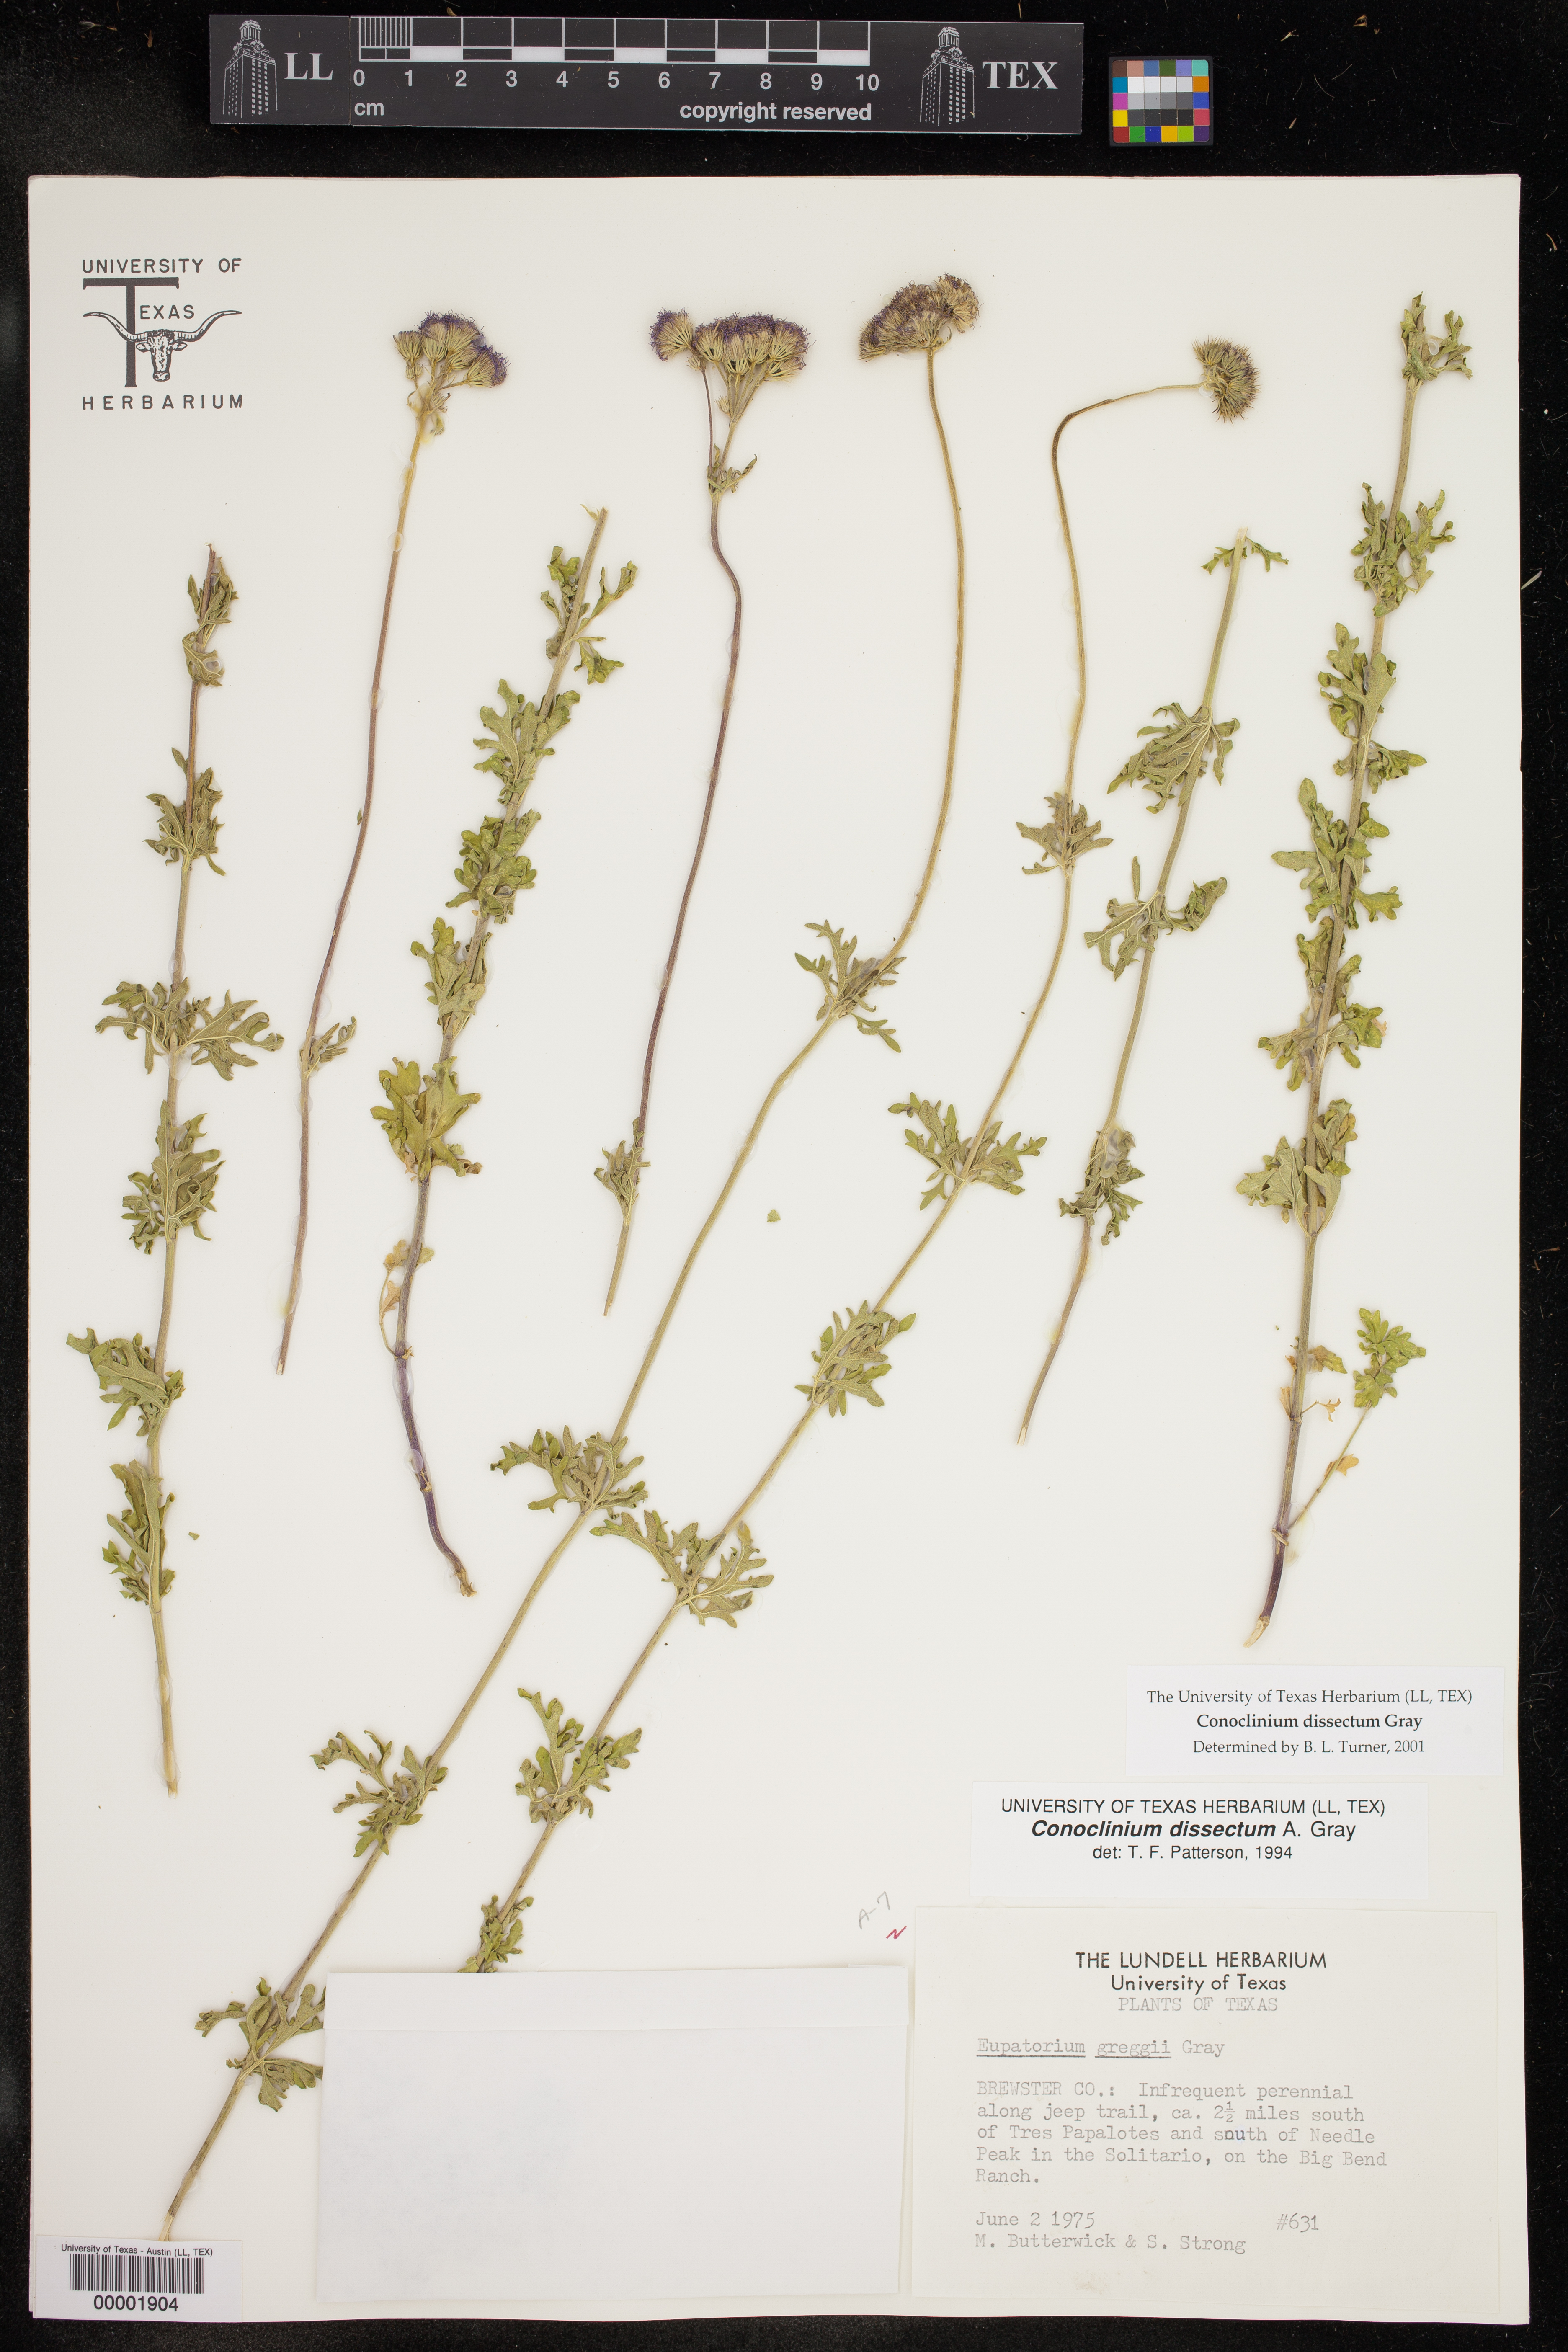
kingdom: Plantae
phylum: Tracheophyta
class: Magnoliopsida
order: Asterales
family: Asteraceae
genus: Conoclinium
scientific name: Conoclinium dissectum
